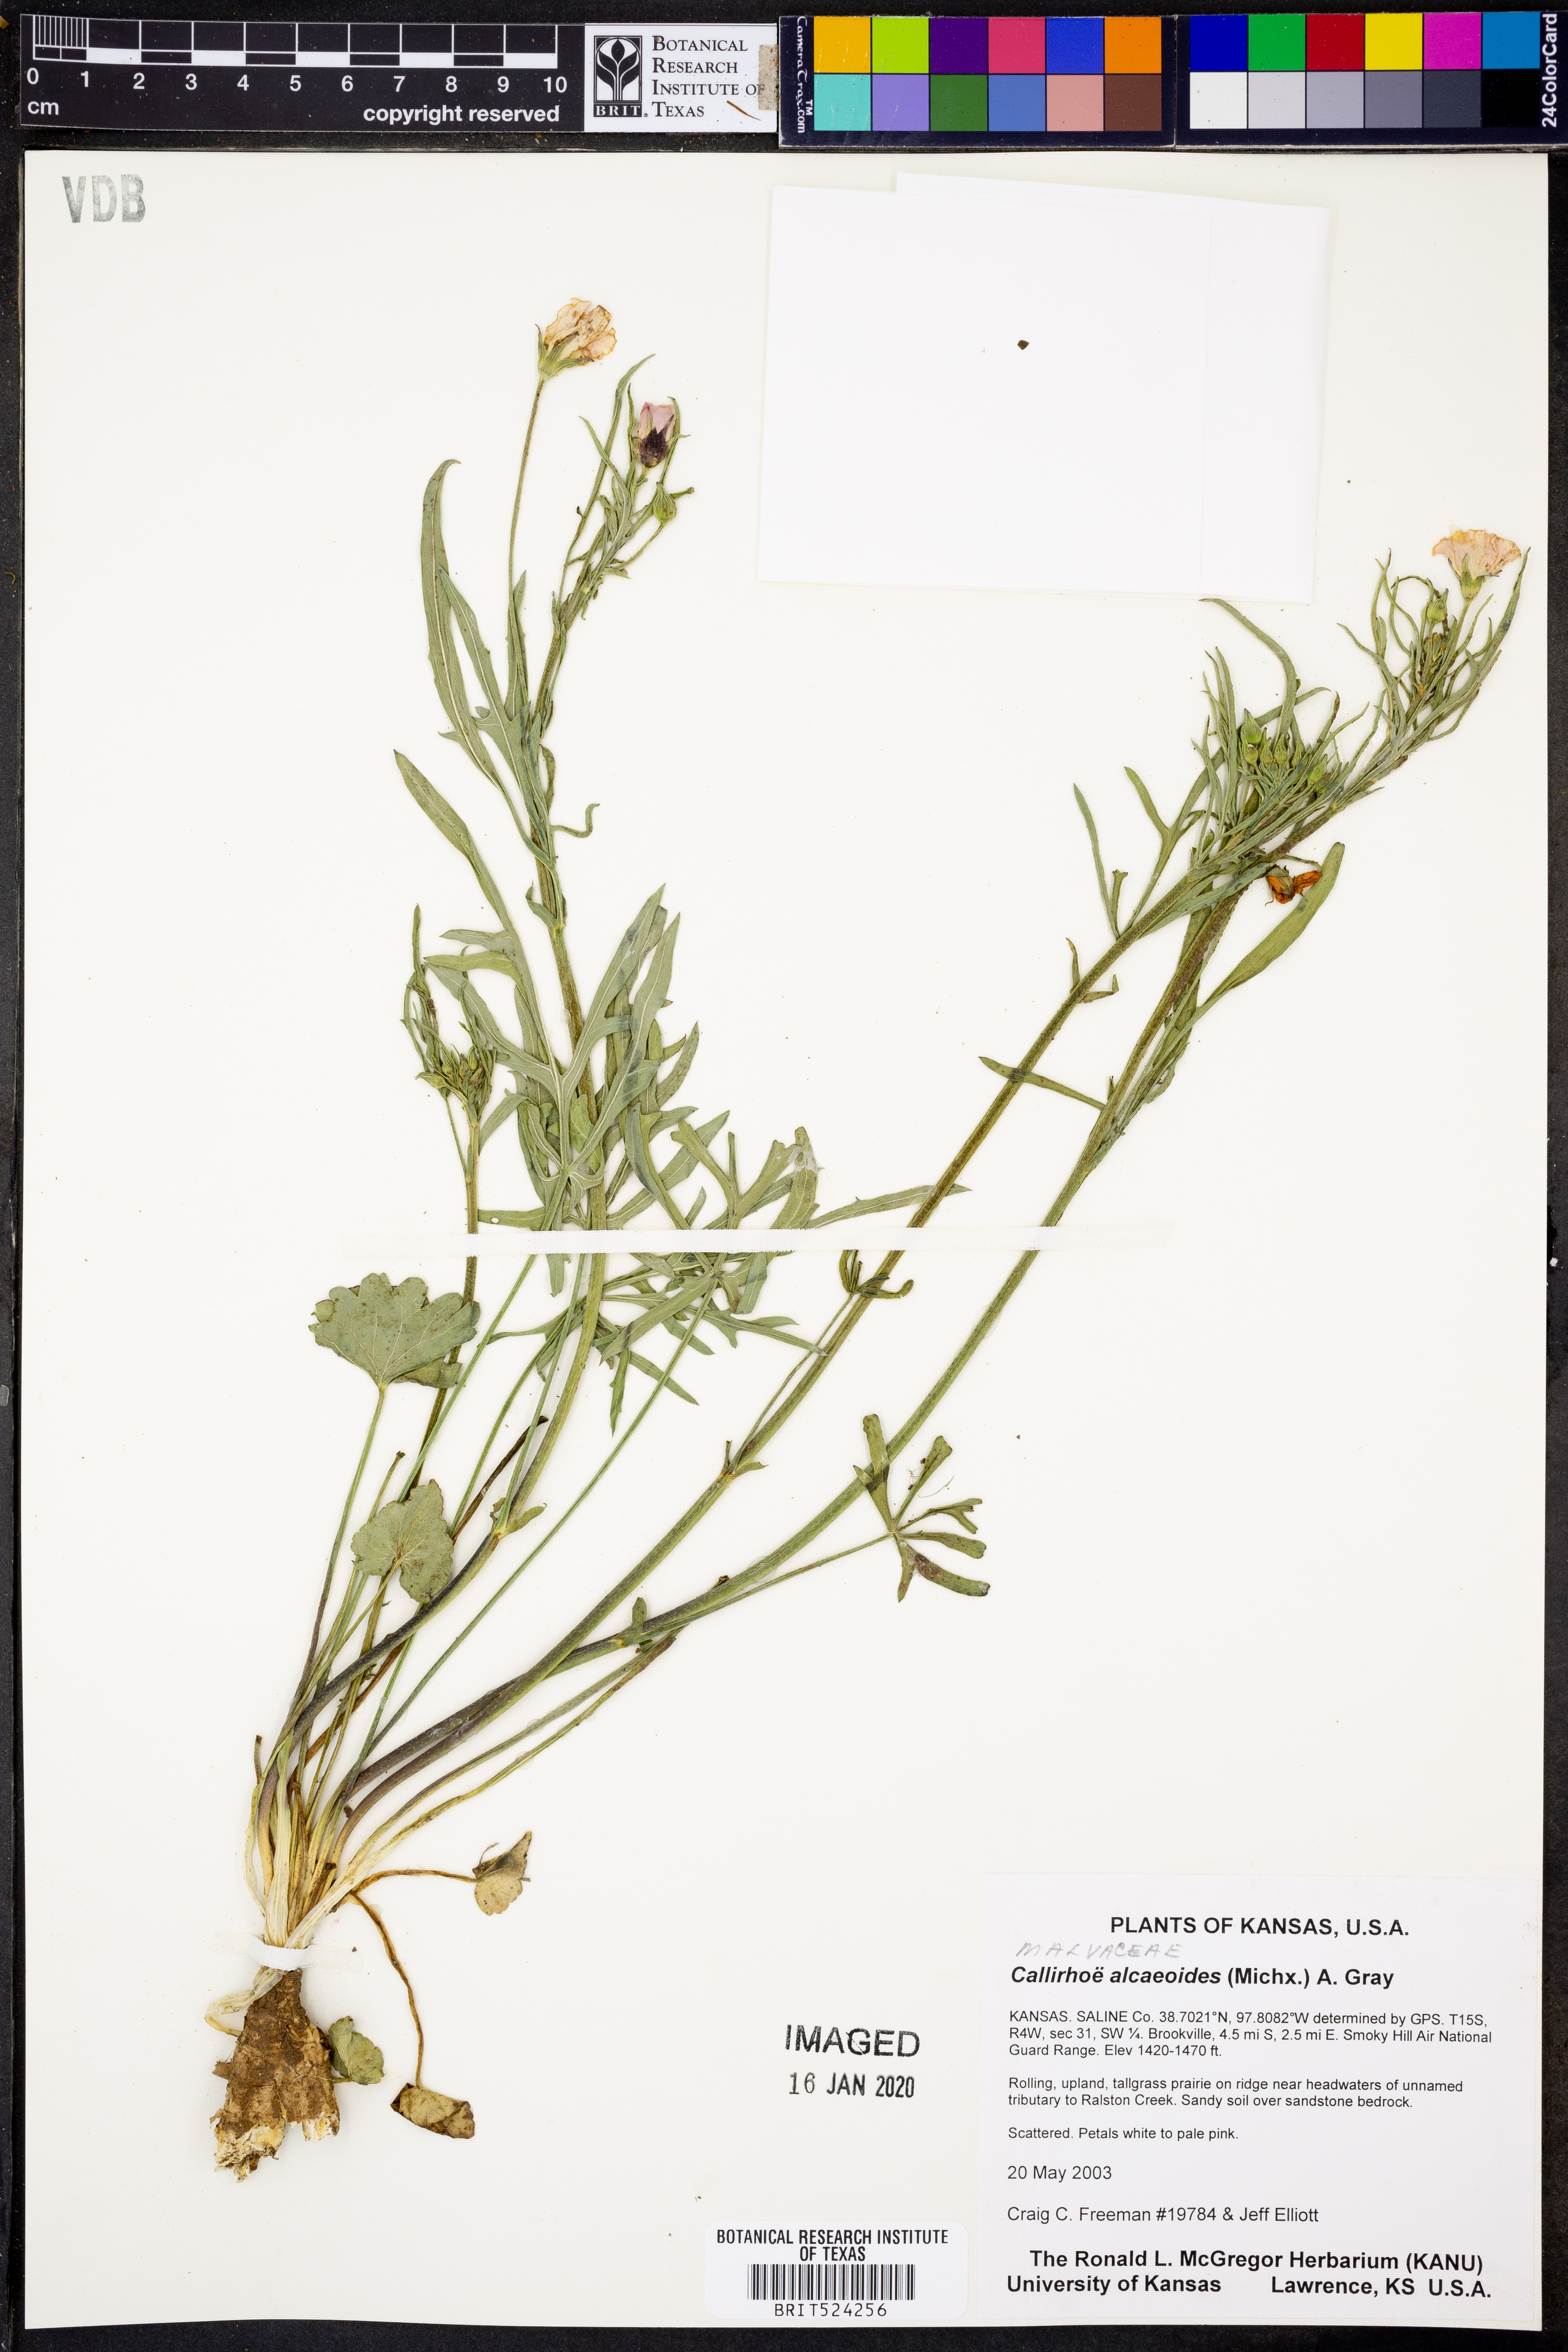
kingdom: Plantae
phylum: Tracheophyta
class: Magnoliopsida
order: Malvales
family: Malvaceae
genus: Callirhoe
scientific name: Callirhoe alcaeoides
